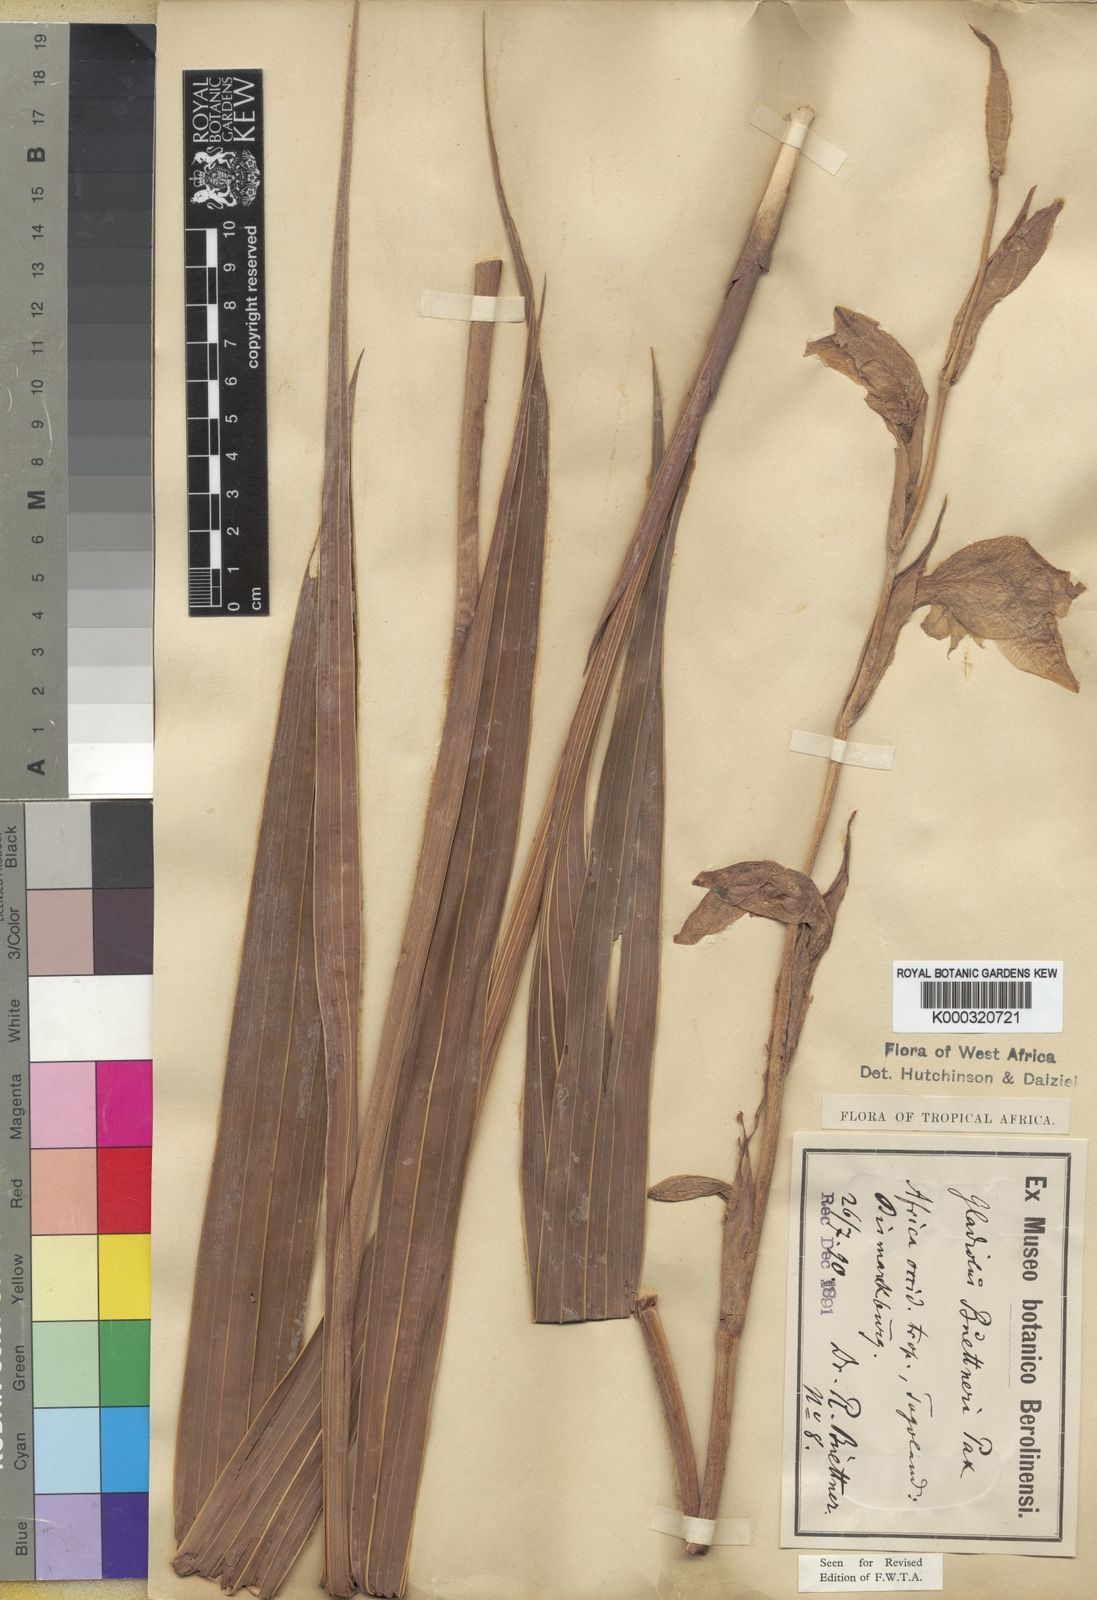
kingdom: Plantae
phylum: Tracheophyta
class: Liliopsida
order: Asparagales
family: Iridaceae
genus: Gladiolus
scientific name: Gladiolus dalenii
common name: Cornflag
